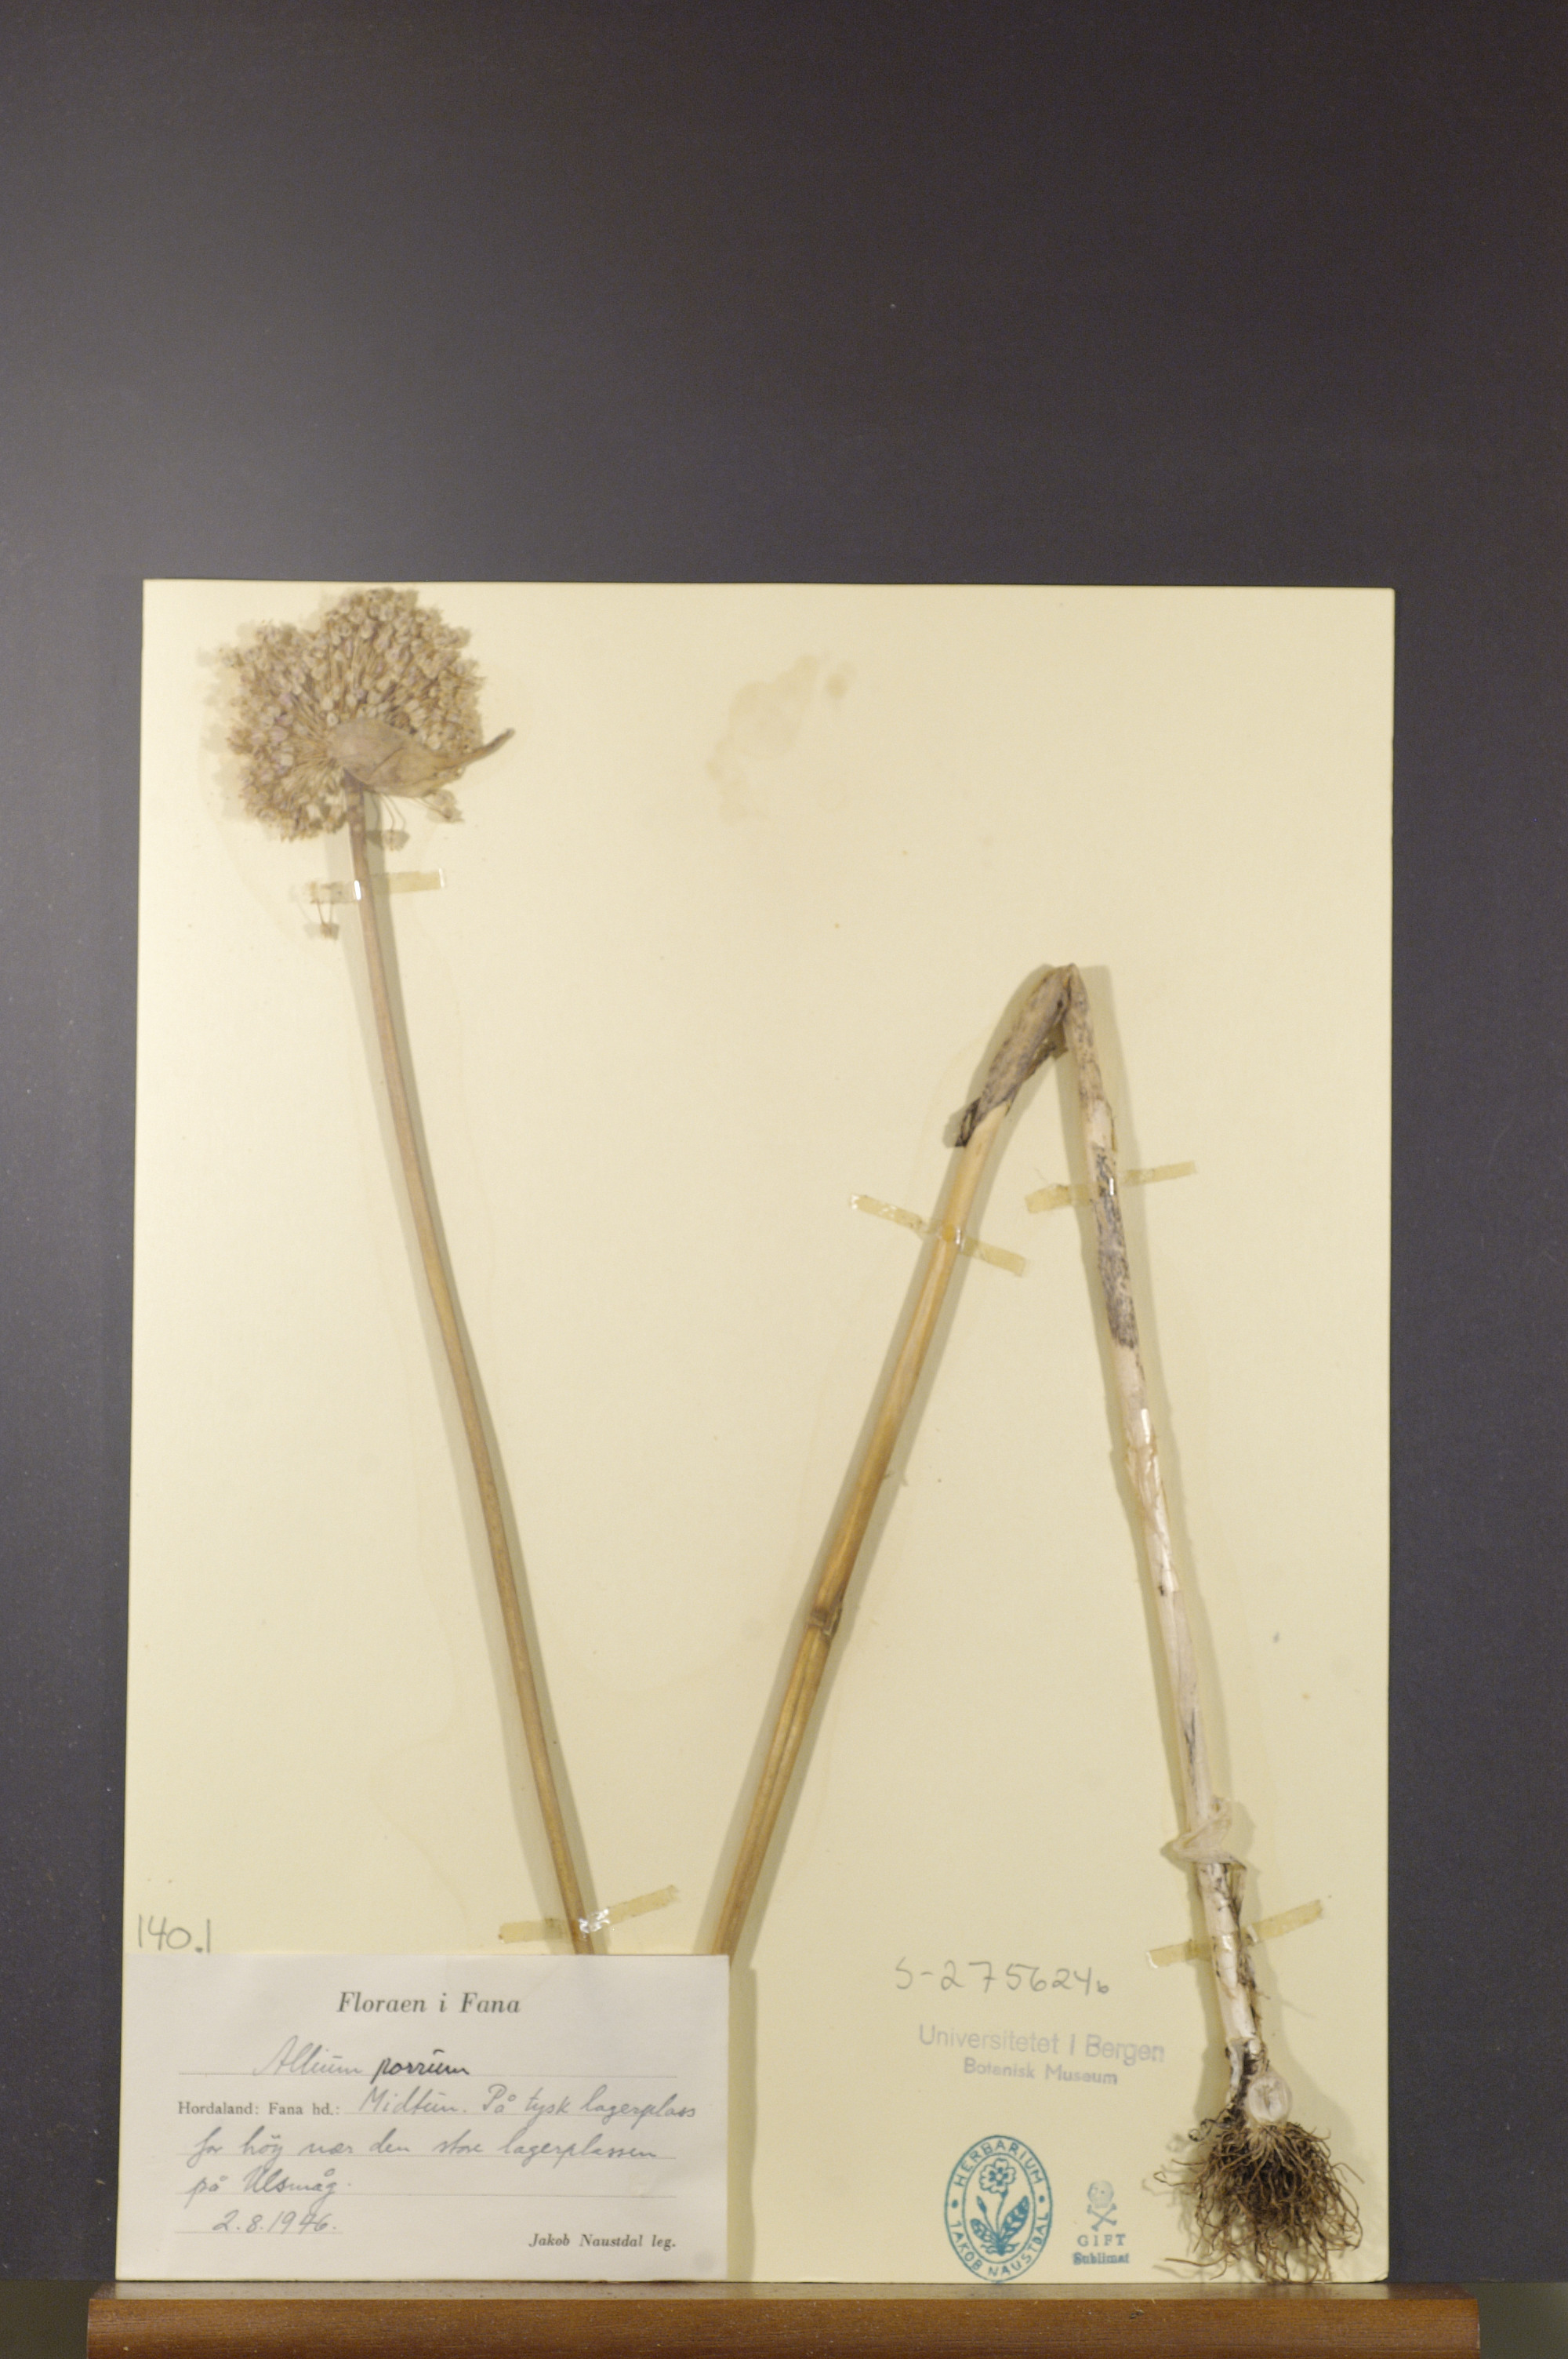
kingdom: Plantae
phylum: Tracheophyta
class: Liliopsida
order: Asparagales
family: Amaryllidaceae
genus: Allium
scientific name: Allium ampeloprasum
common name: Wild leek
